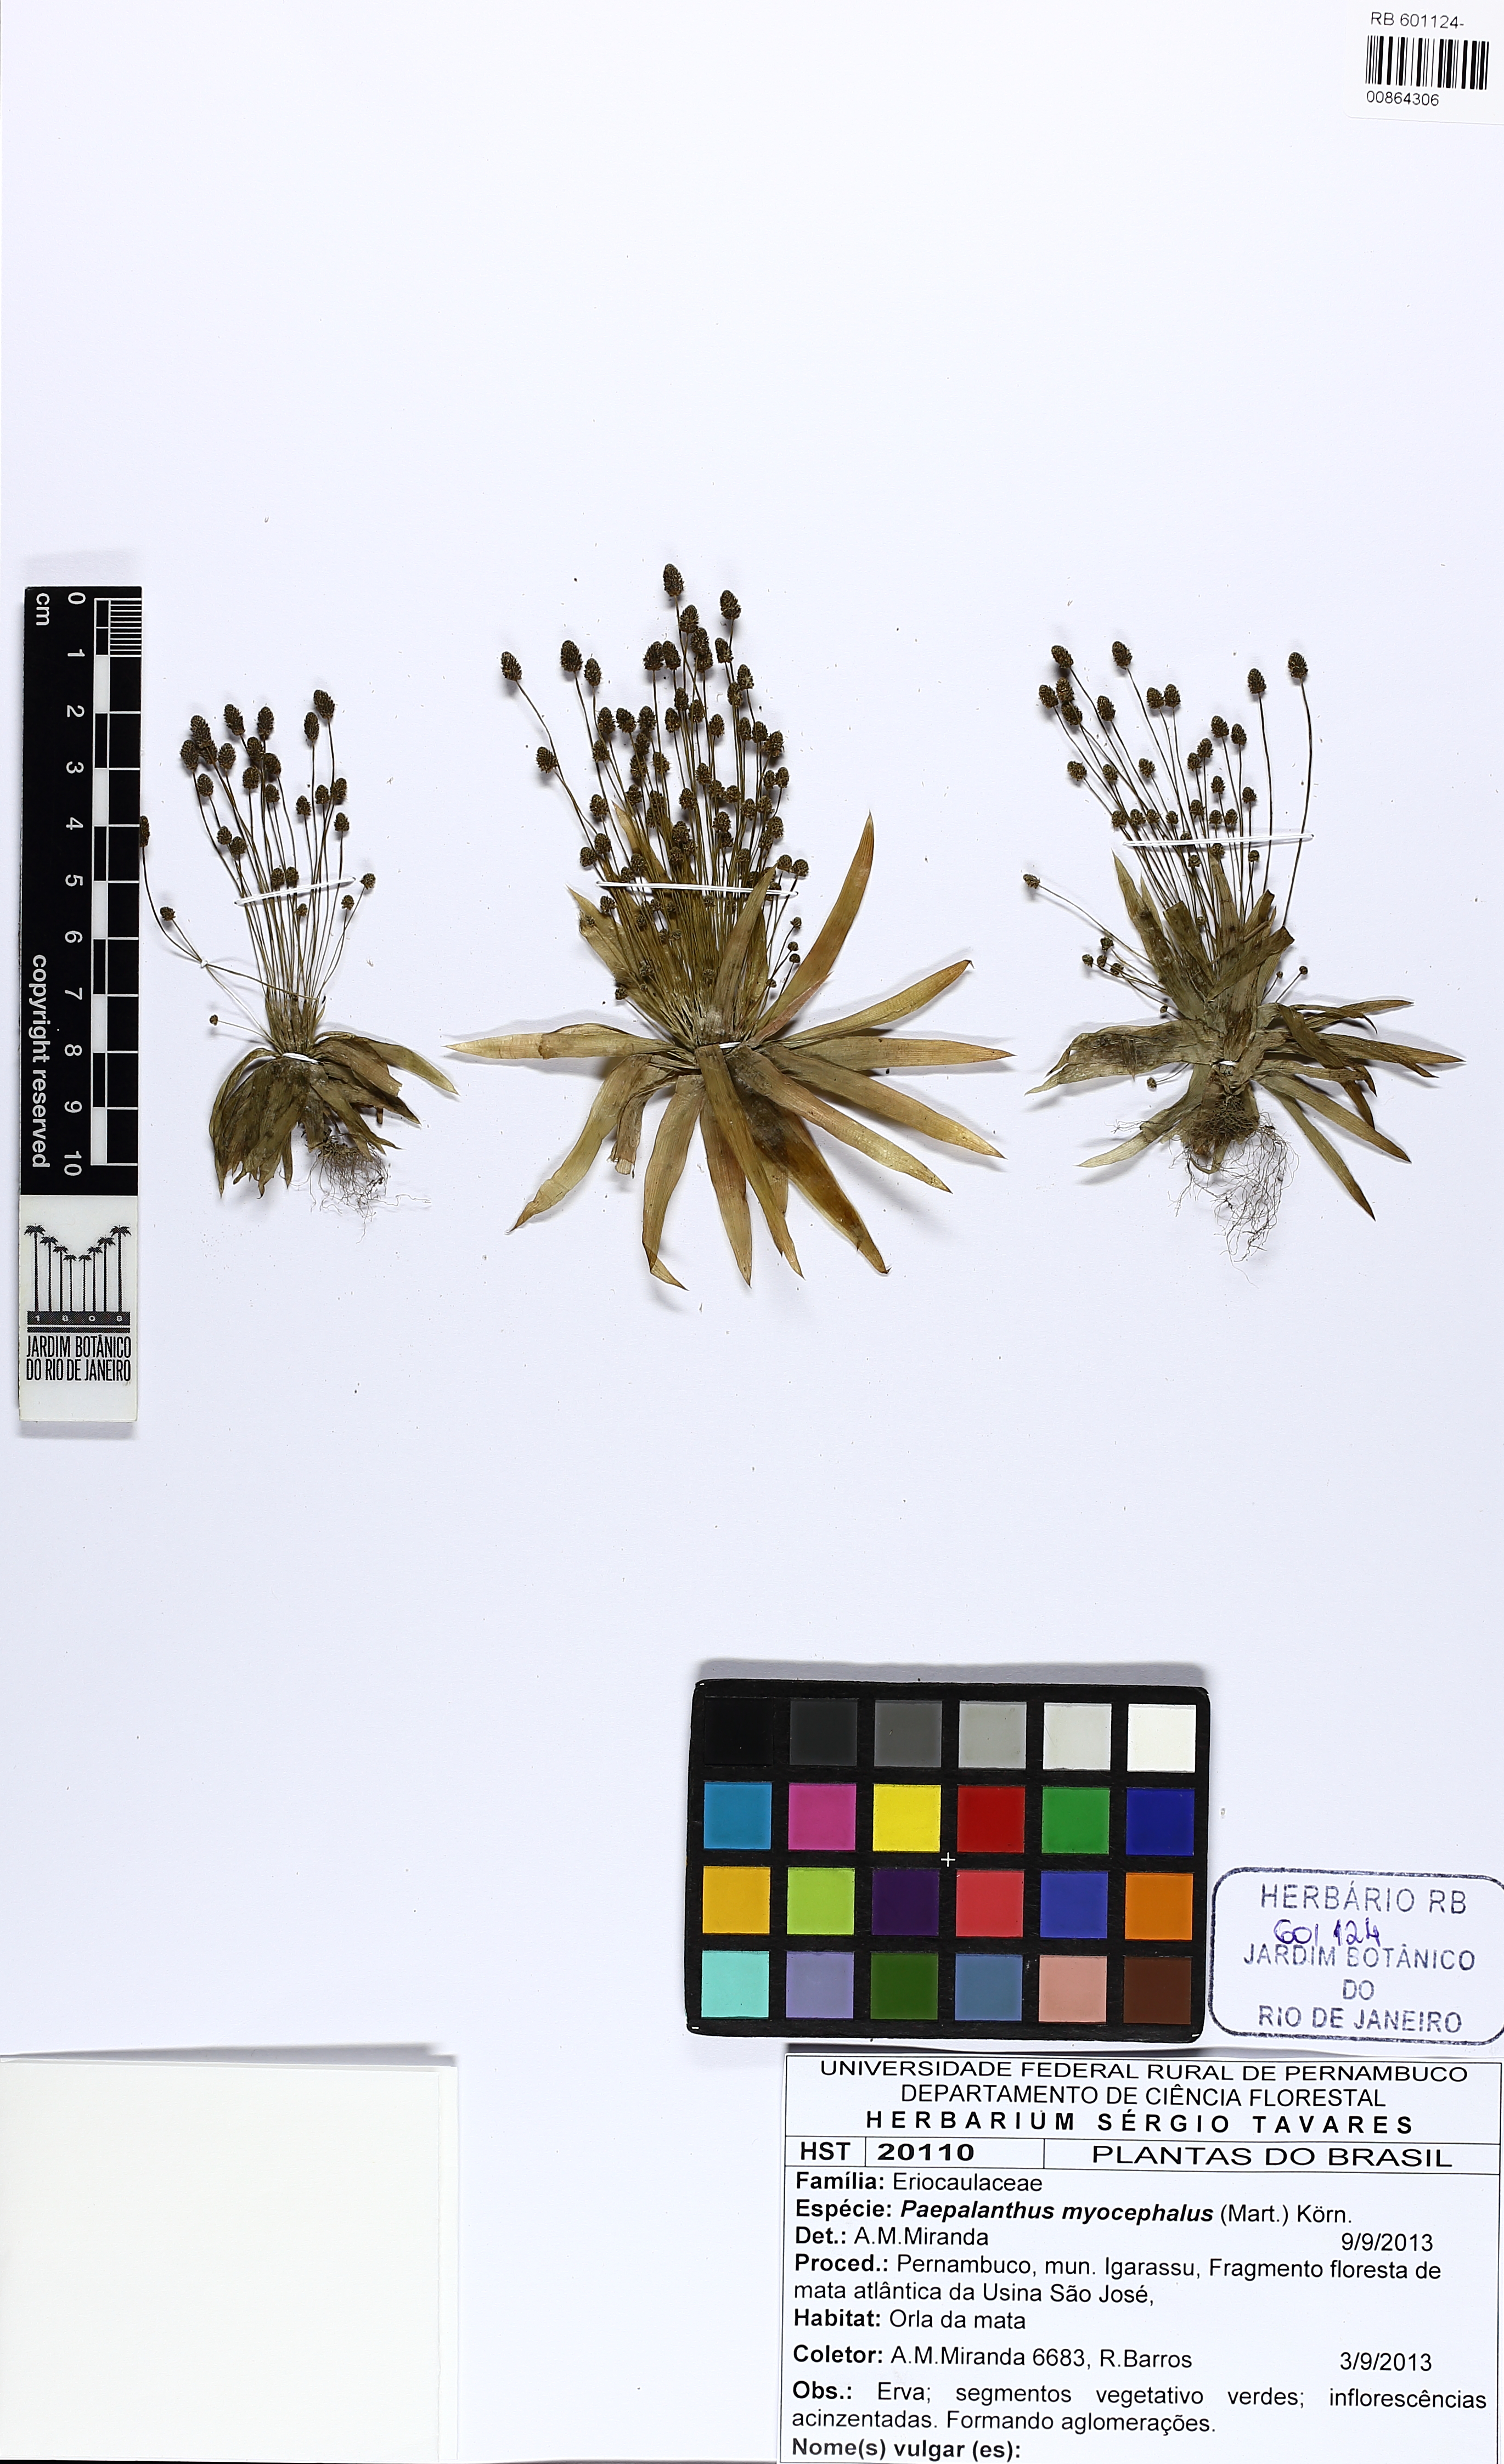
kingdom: Plantae
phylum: Tracheophyta
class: Liliopsida
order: Poales
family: Eriocaulaceae
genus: Paepalanthus
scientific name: Paepalanthus myocephalon
